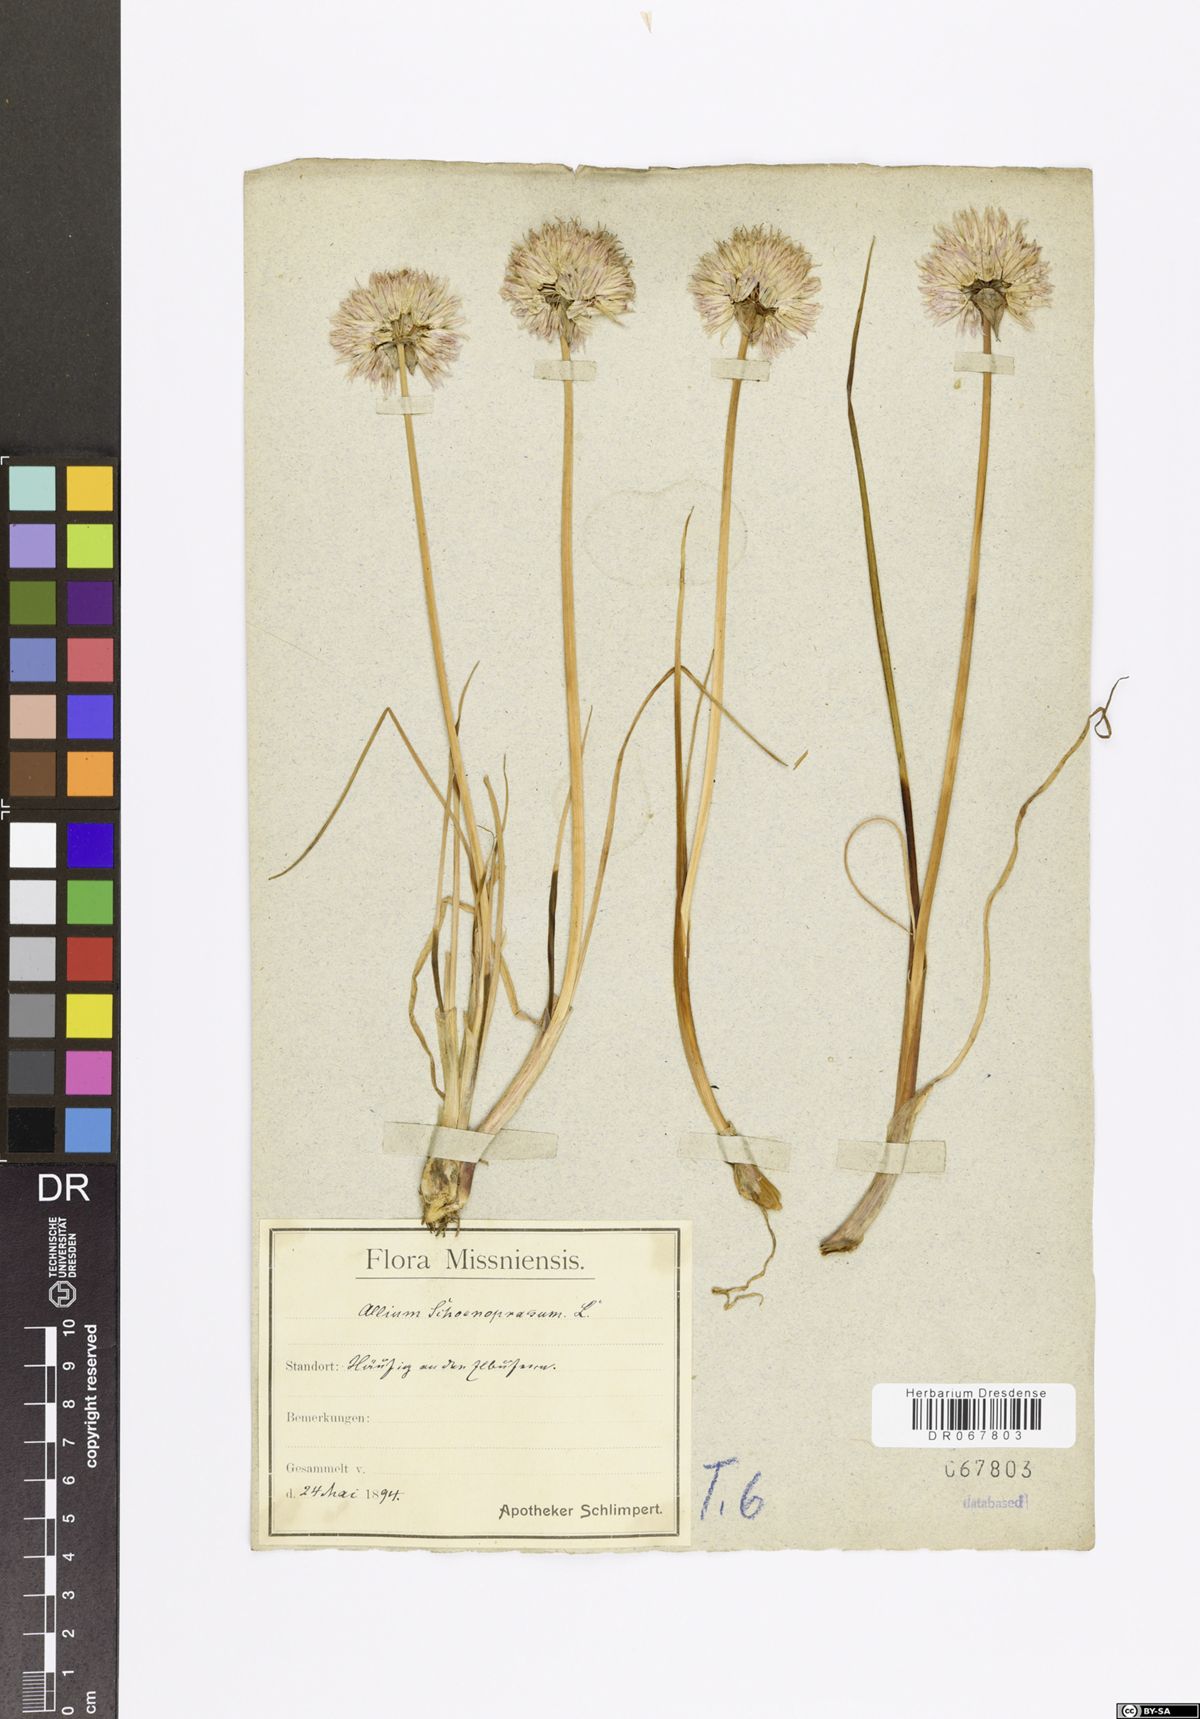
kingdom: Plantae
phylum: Tracheophyta
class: Liliopsida
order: Asparagales
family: Amaryllidaceae
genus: Allium
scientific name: Allium schoenoprasum
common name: Chives
